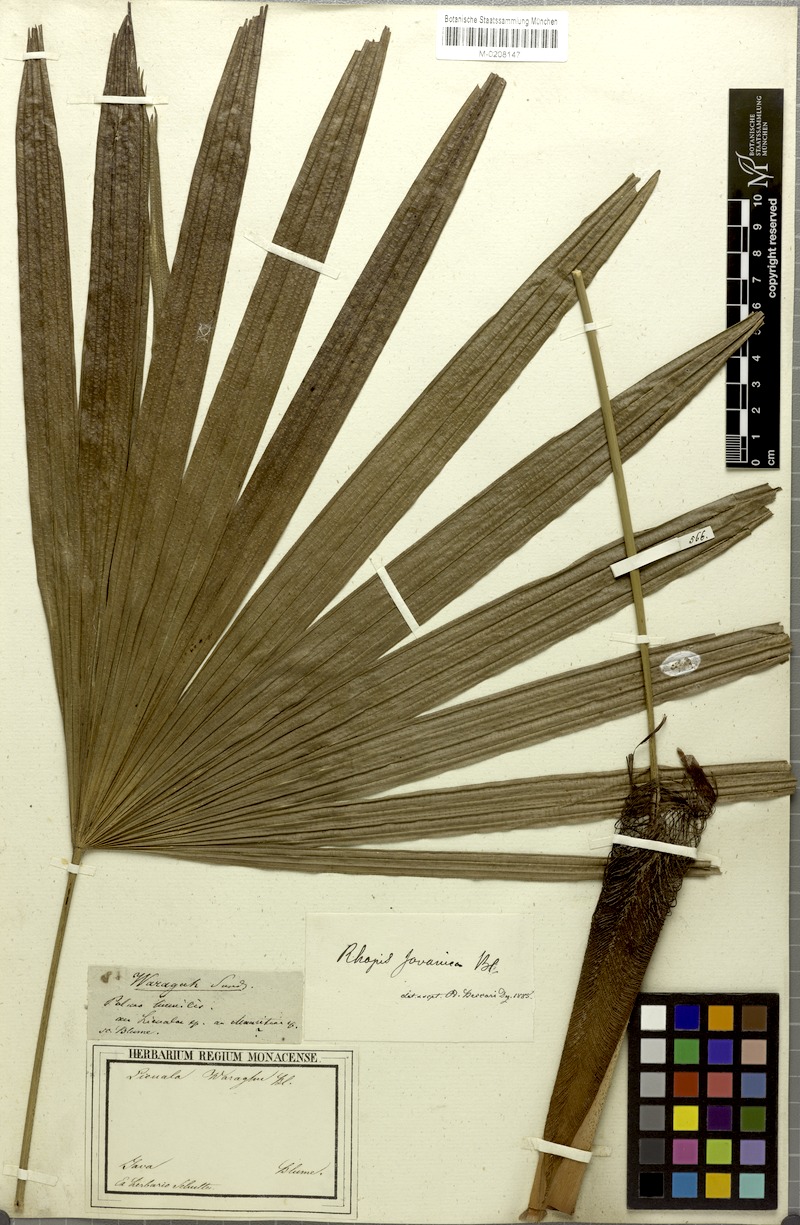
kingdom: Plantae
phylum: Tracheophyta
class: Liliopsida
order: Arecales
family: Arecaceae
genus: Rhapis
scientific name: Rhapis humilis
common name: Reed rhapis
